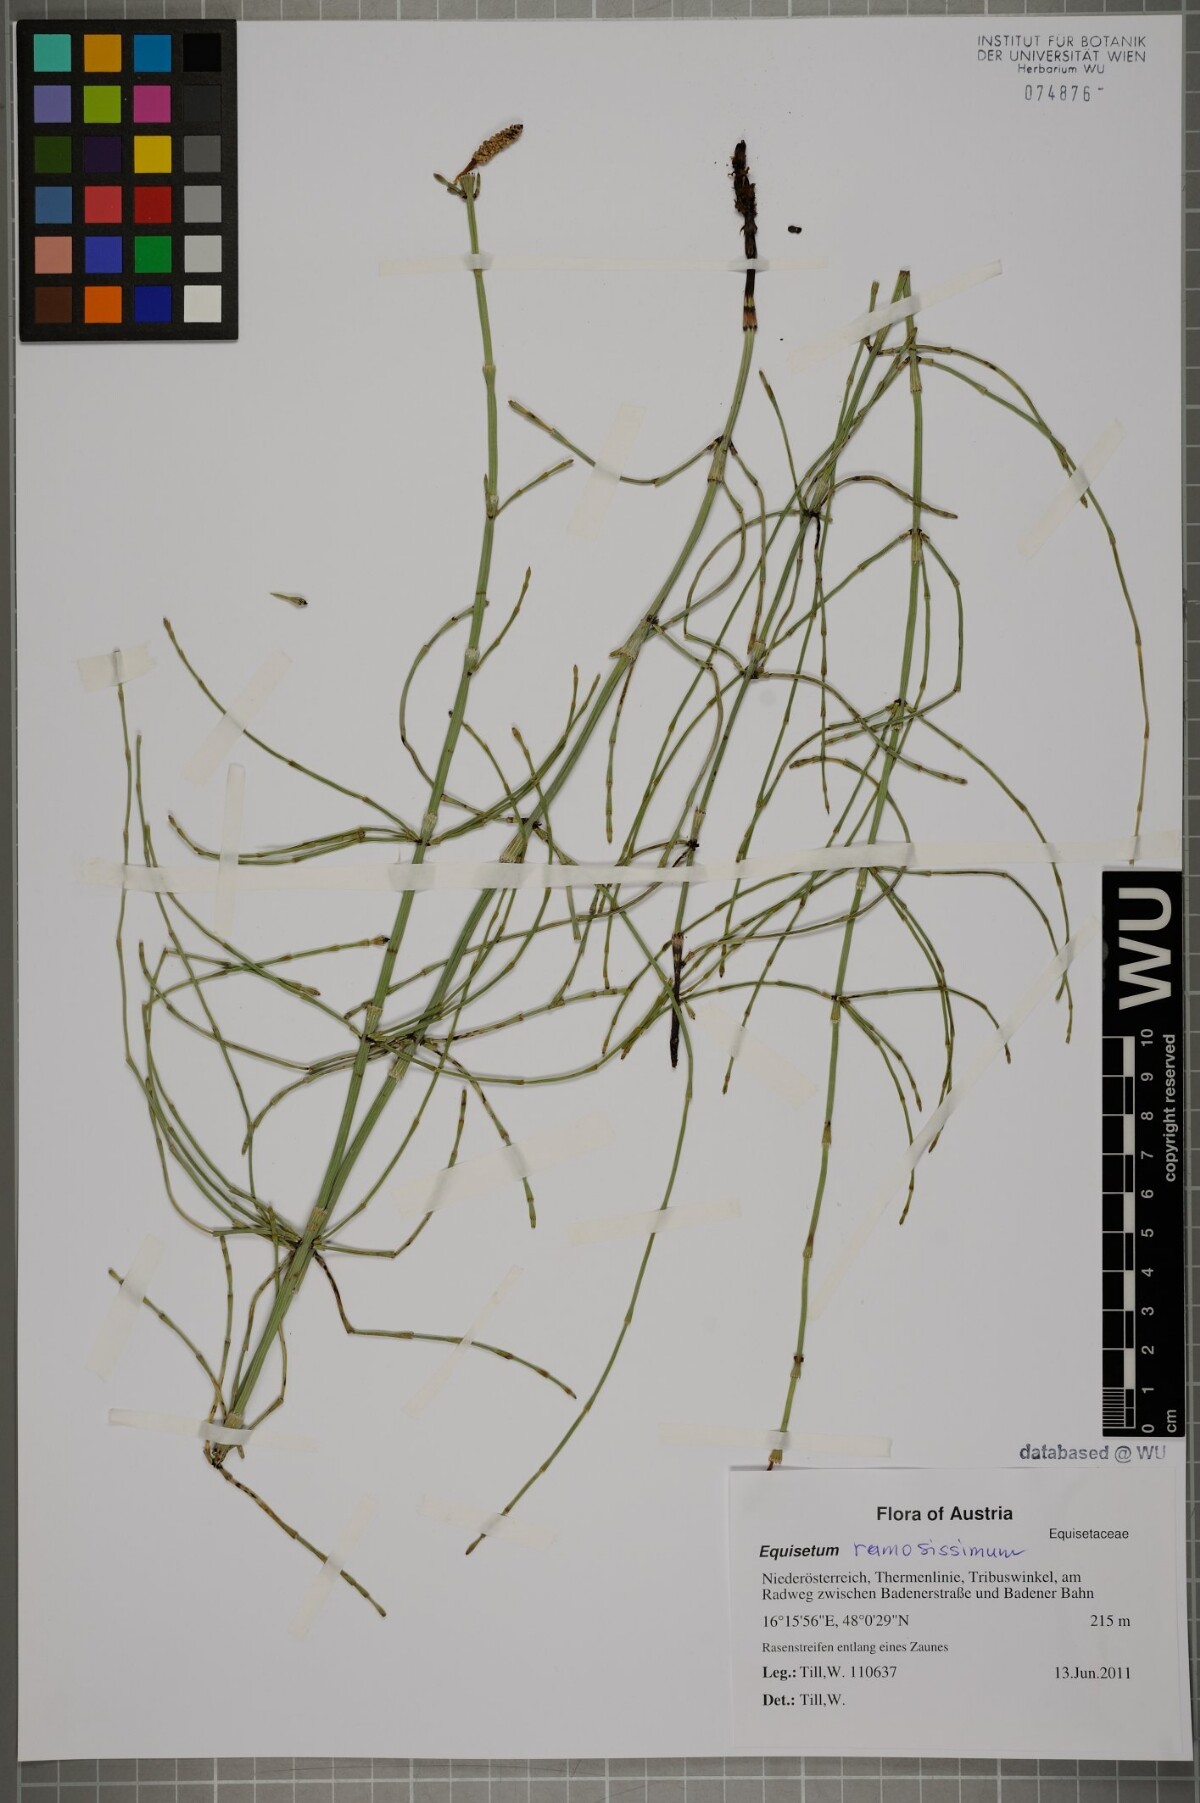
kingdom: Plantae
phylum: Tracheophyta
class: Polypodiopsida
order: Equisetales
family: Equisetaceae
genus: Equisetum
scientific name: Equisetum ramosissimum
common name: Branched horsetail
